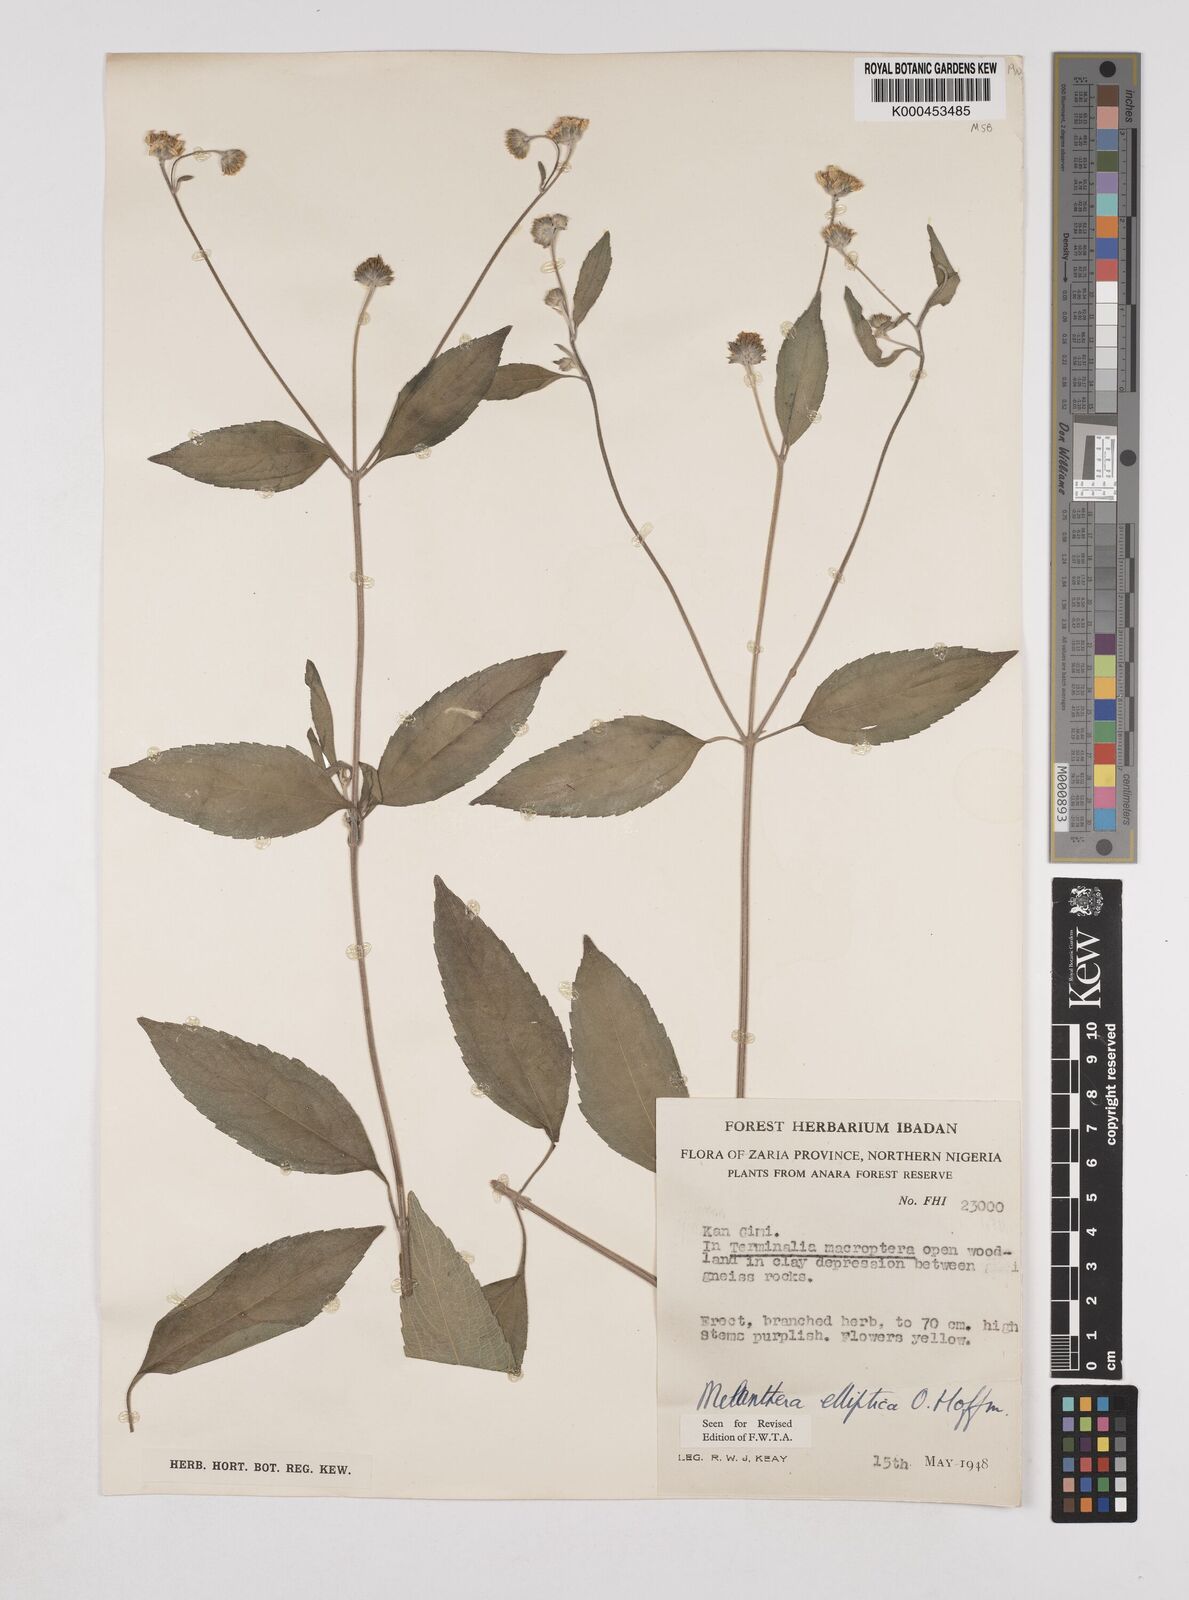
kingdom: Plantae
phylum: Tracheophyta
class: Magnoliopsida
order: Asterales
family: Asteraceae
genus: Lipotriche
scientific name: Lipotriche elliptica
